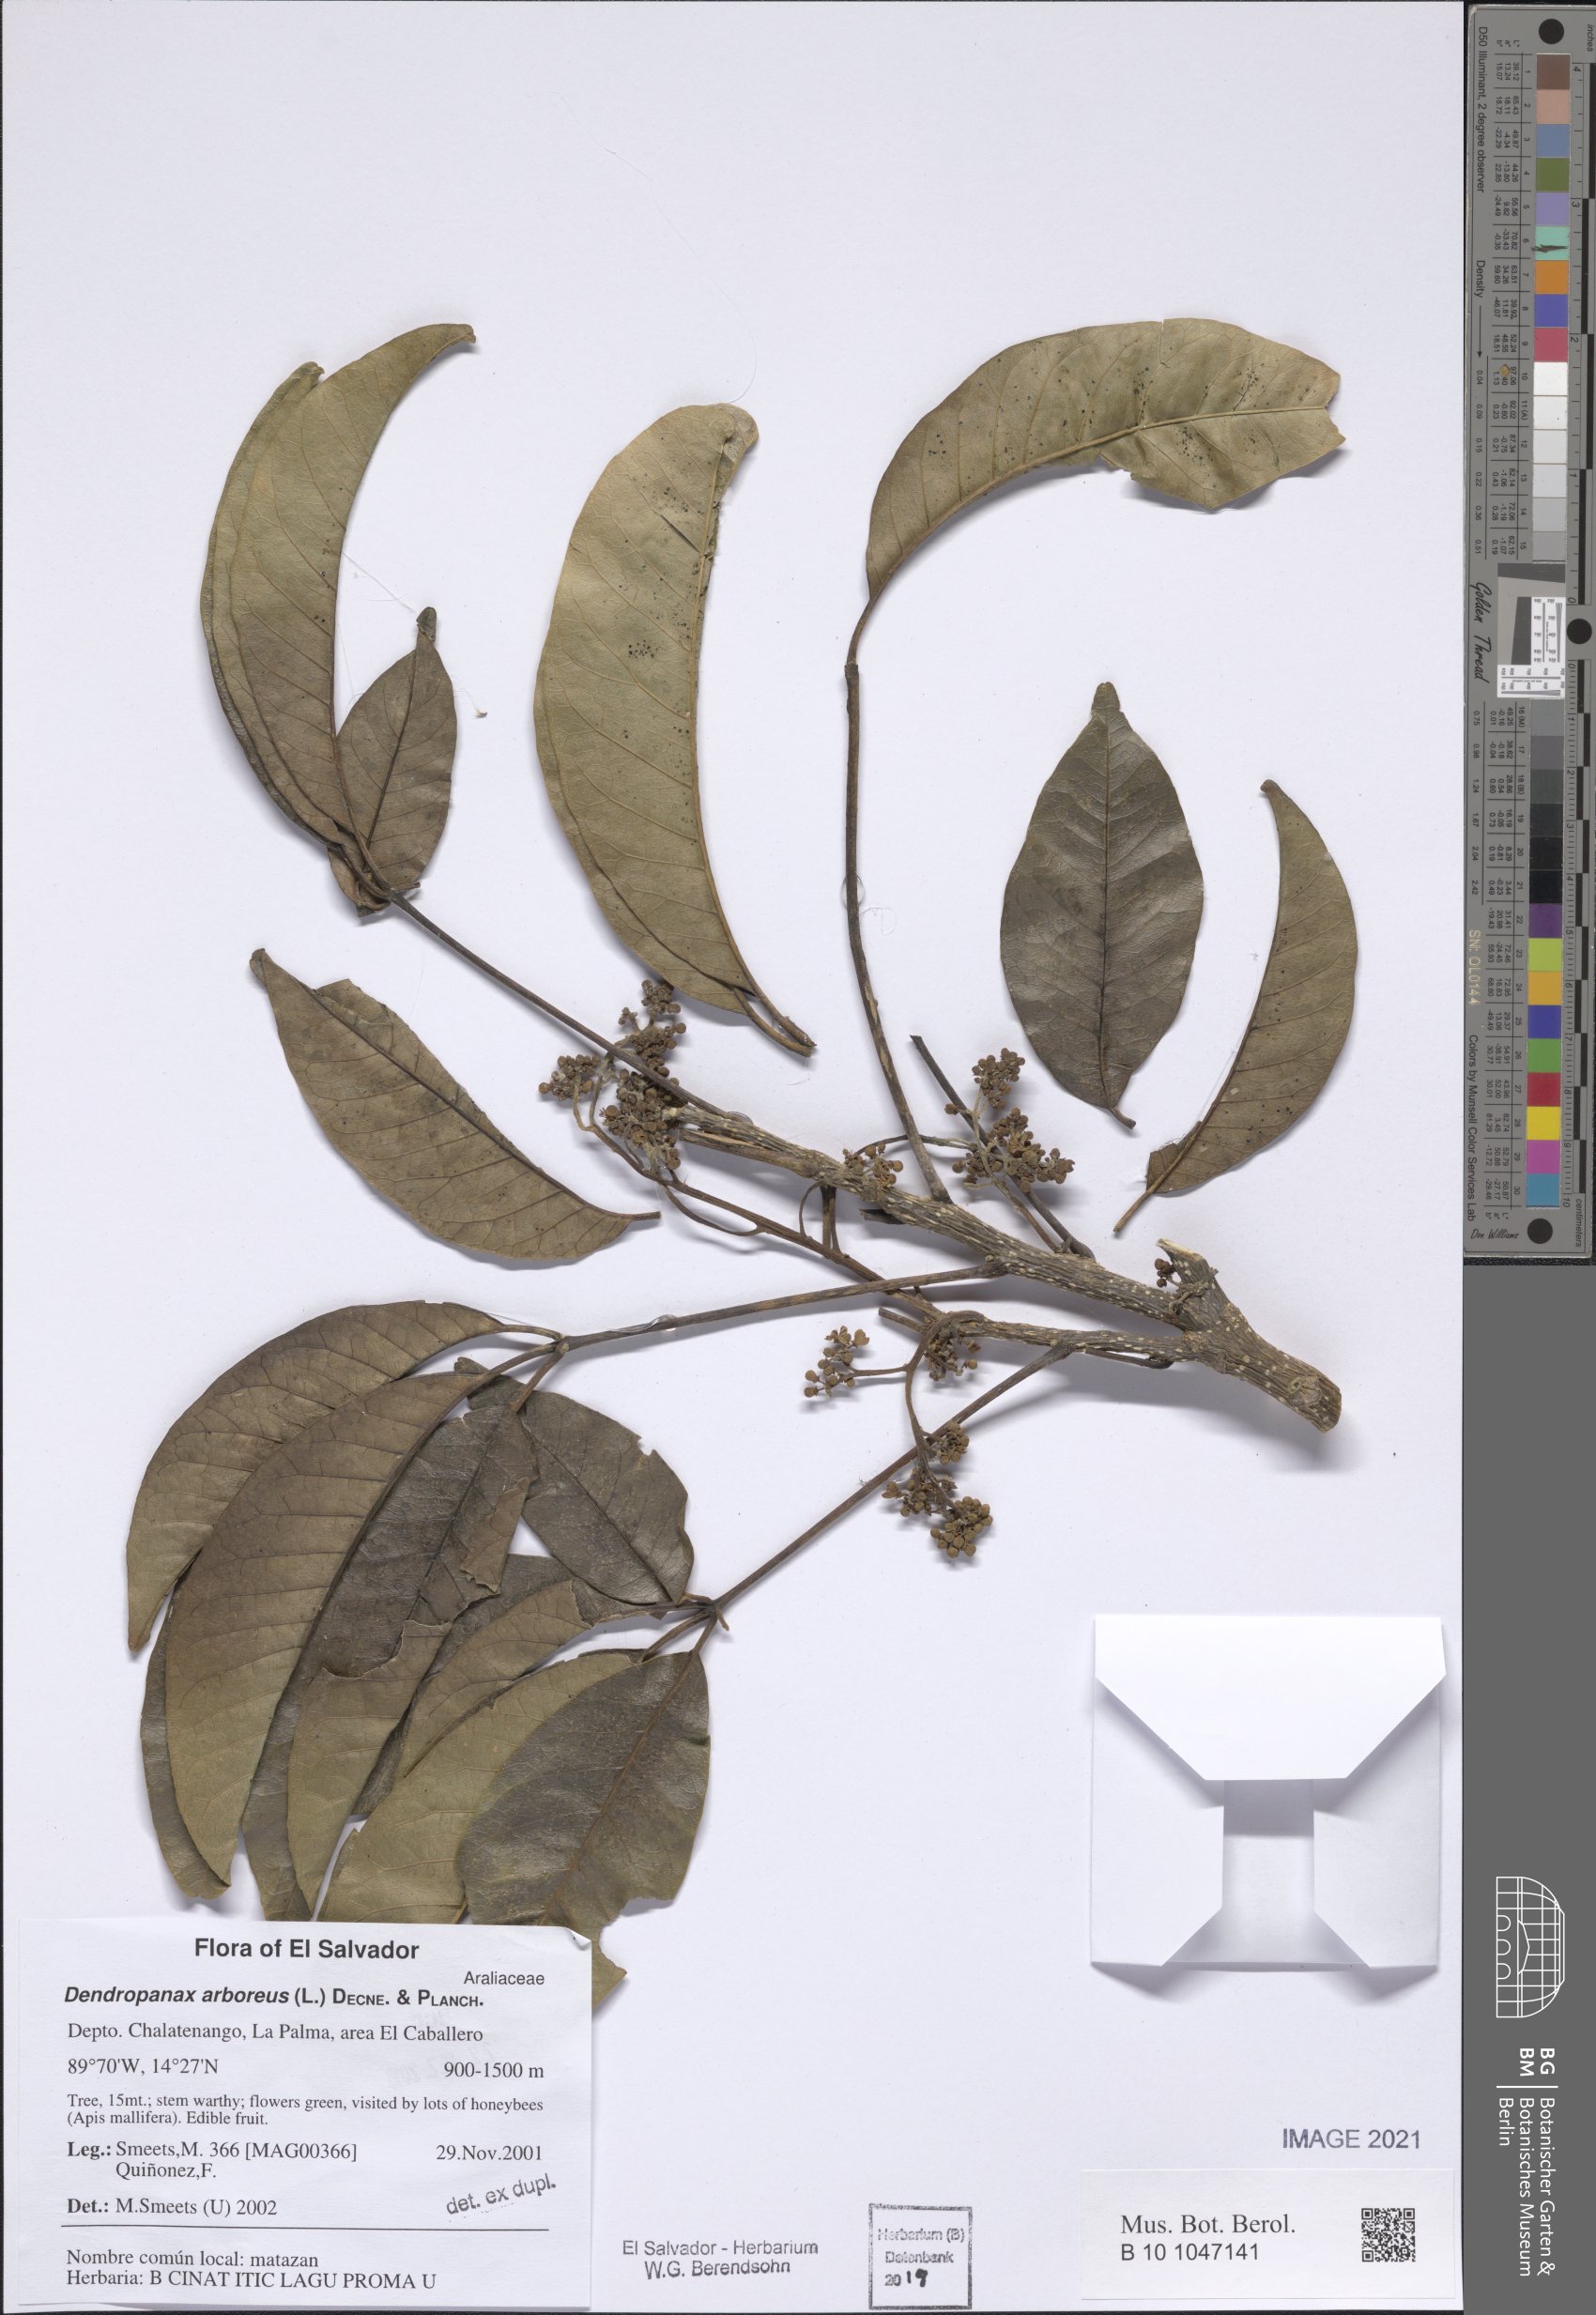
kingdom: Plantae
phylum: Tracheophyta
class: Magnoliopsida
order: Sapindales
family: Rutaceae
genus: Casimiroa
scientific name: Casimiroa sapota
